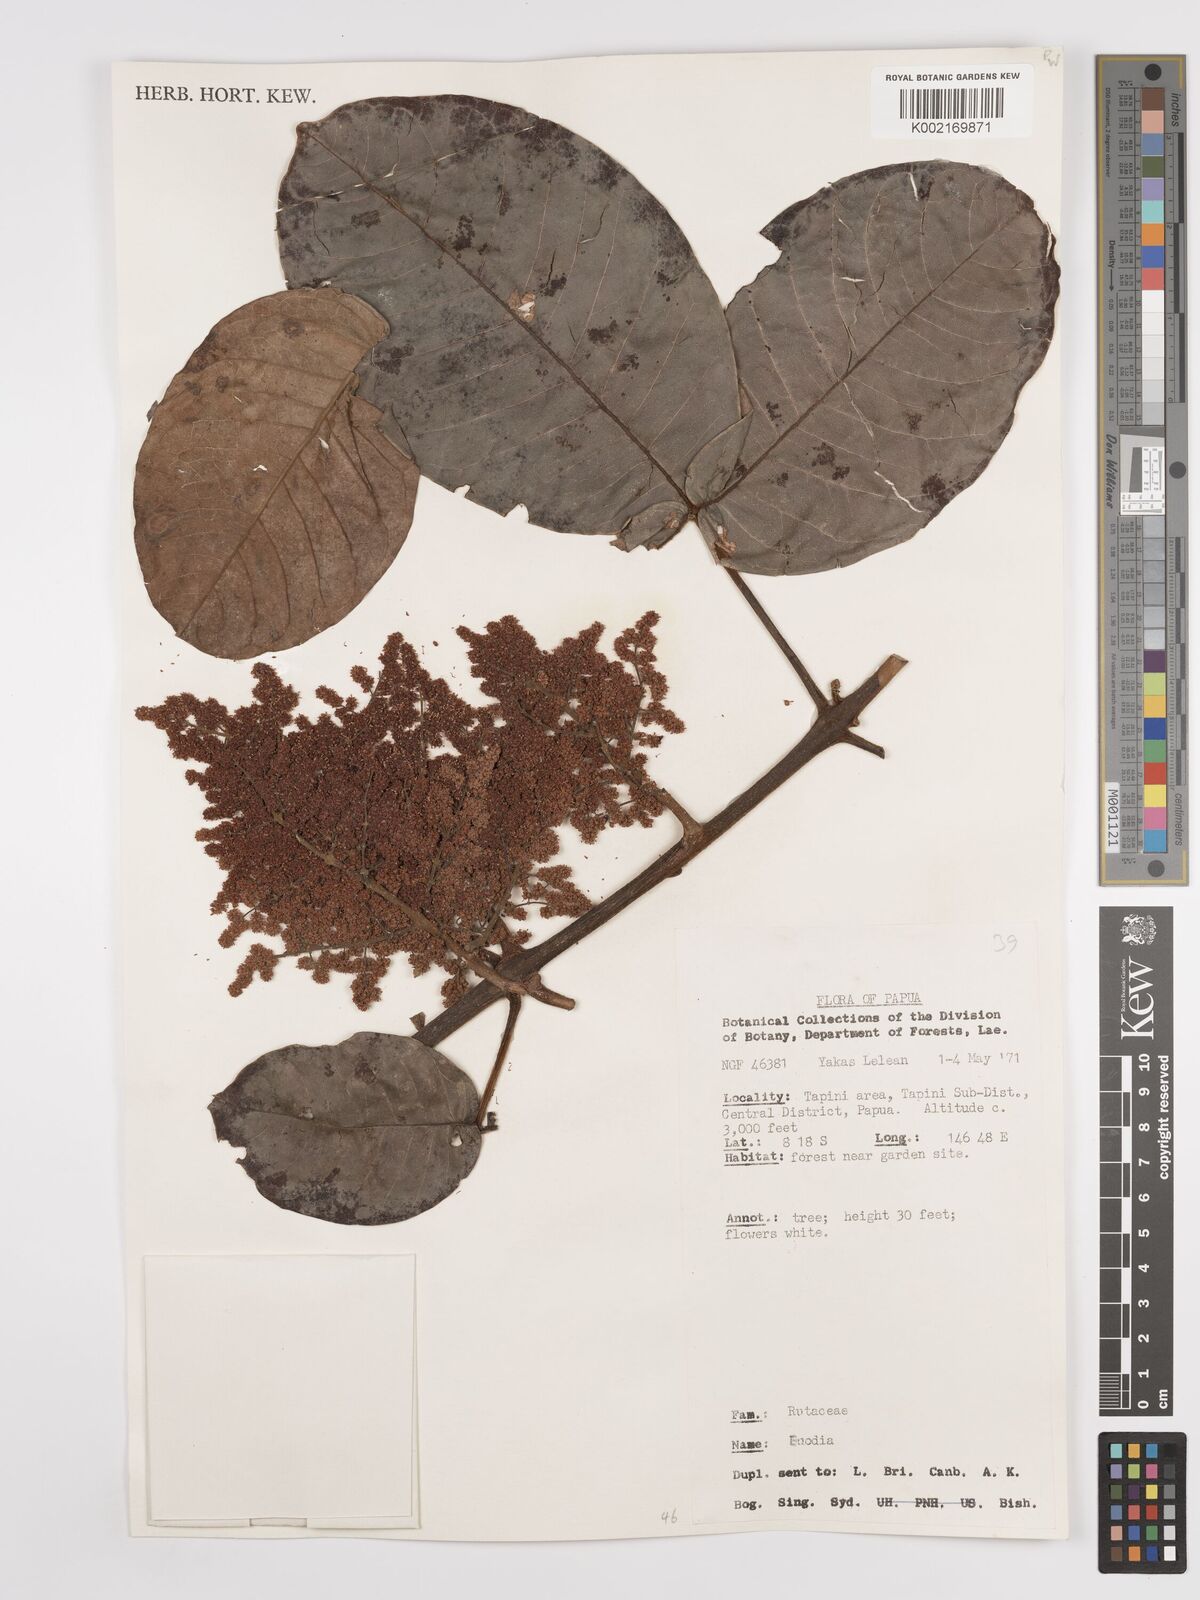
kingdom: Plantae
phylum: Tracheophyta
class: Magnoliopsida
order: Sapindales
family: Rutaceae
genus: Euodia
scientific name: Euodia
